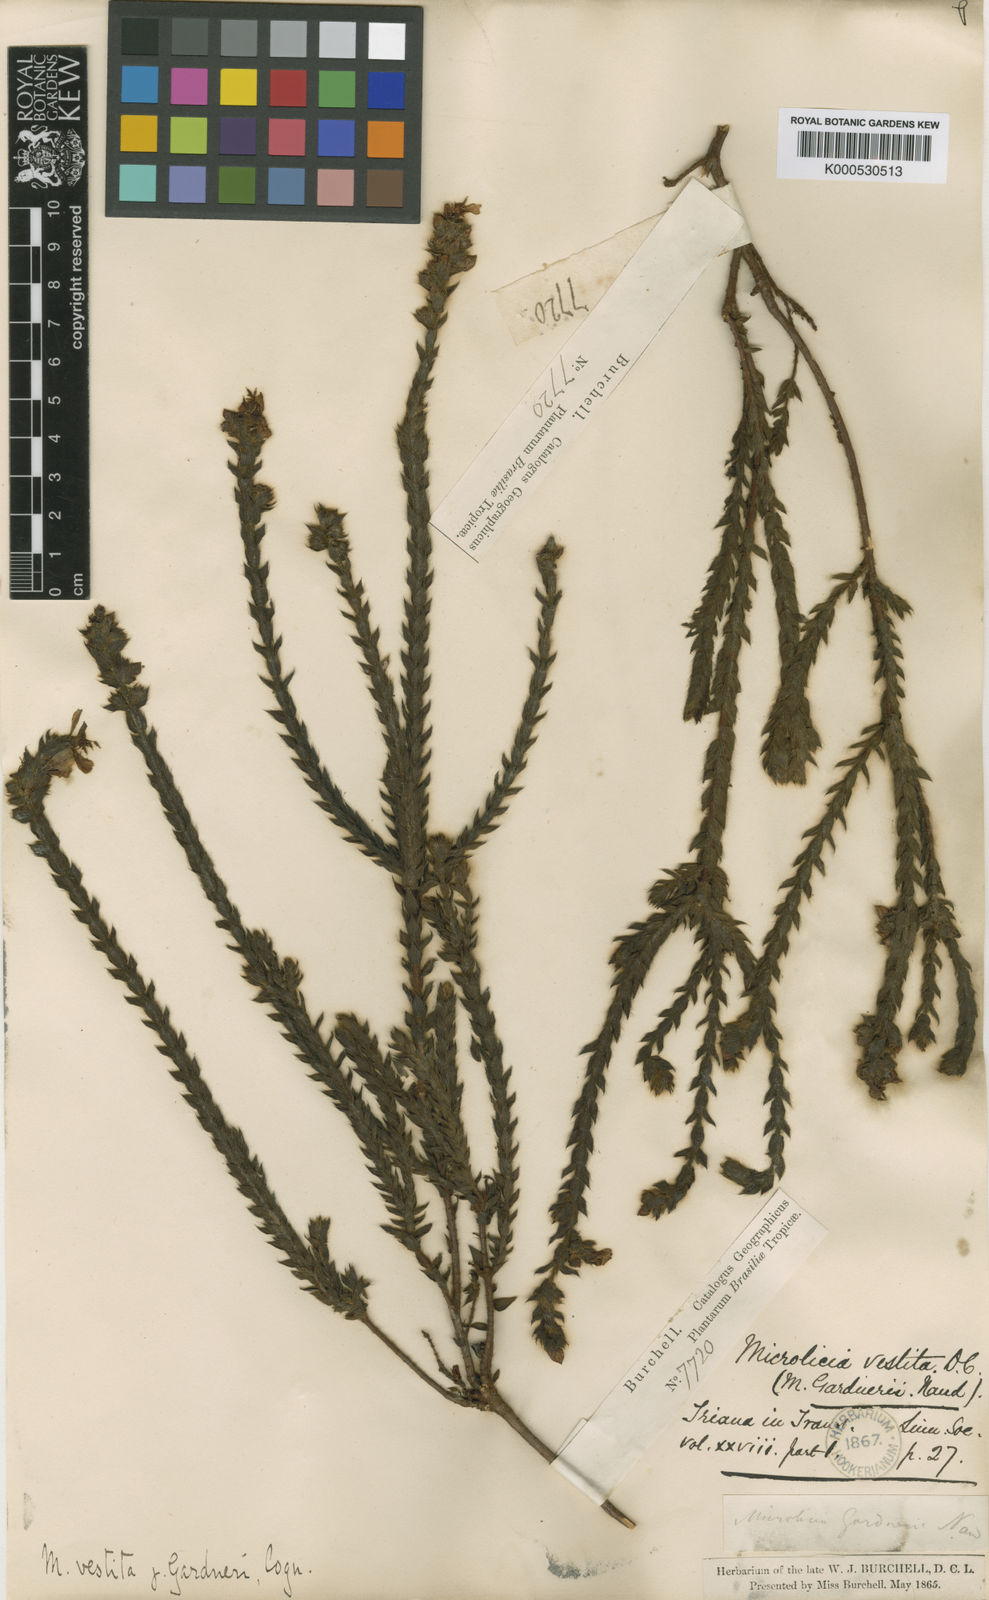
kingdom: Plantae
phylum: Tracheophyta
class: Magnoliopsida
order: Myrtales
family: Melastomataceae
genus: Microlicia
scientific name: Microlicia vestita
